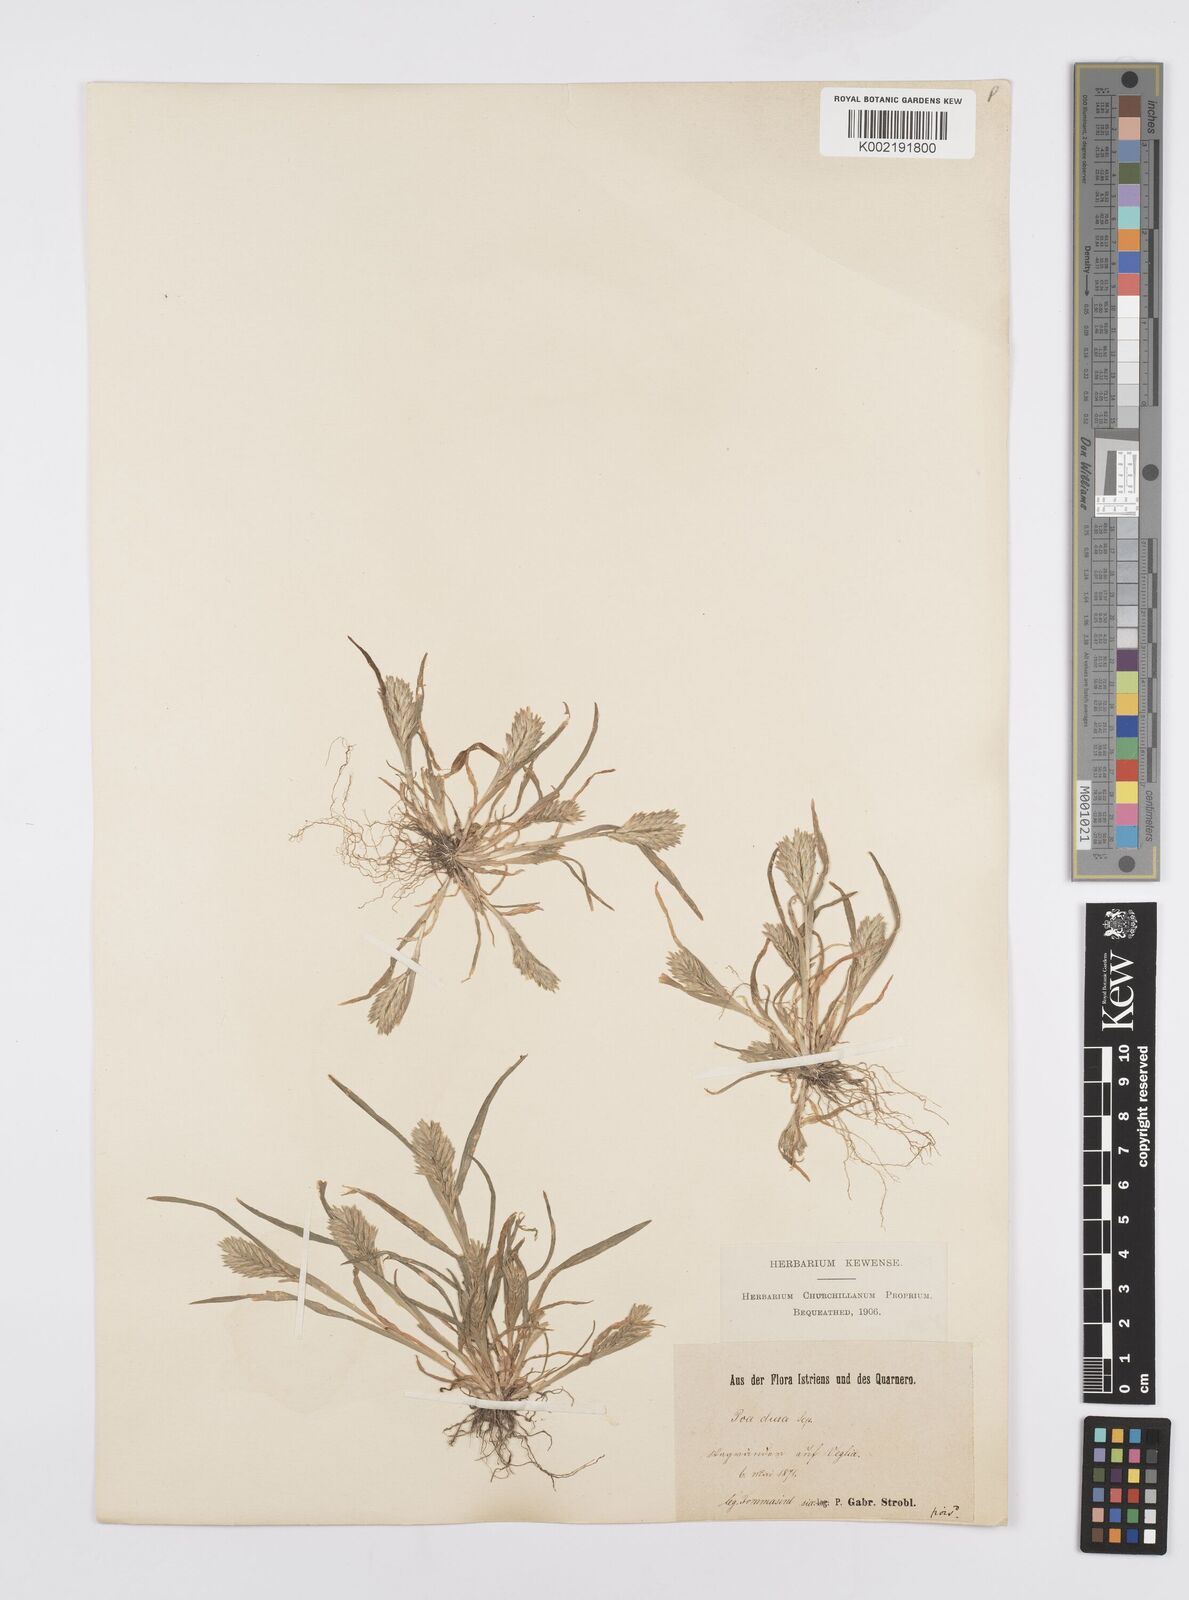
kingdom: Plantae
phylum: Tracheophyta
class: Liliopsida
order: Poales
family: Poaceae
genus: Sclerochloa
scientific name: Sclerochloa dura
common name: Common hardgrass
